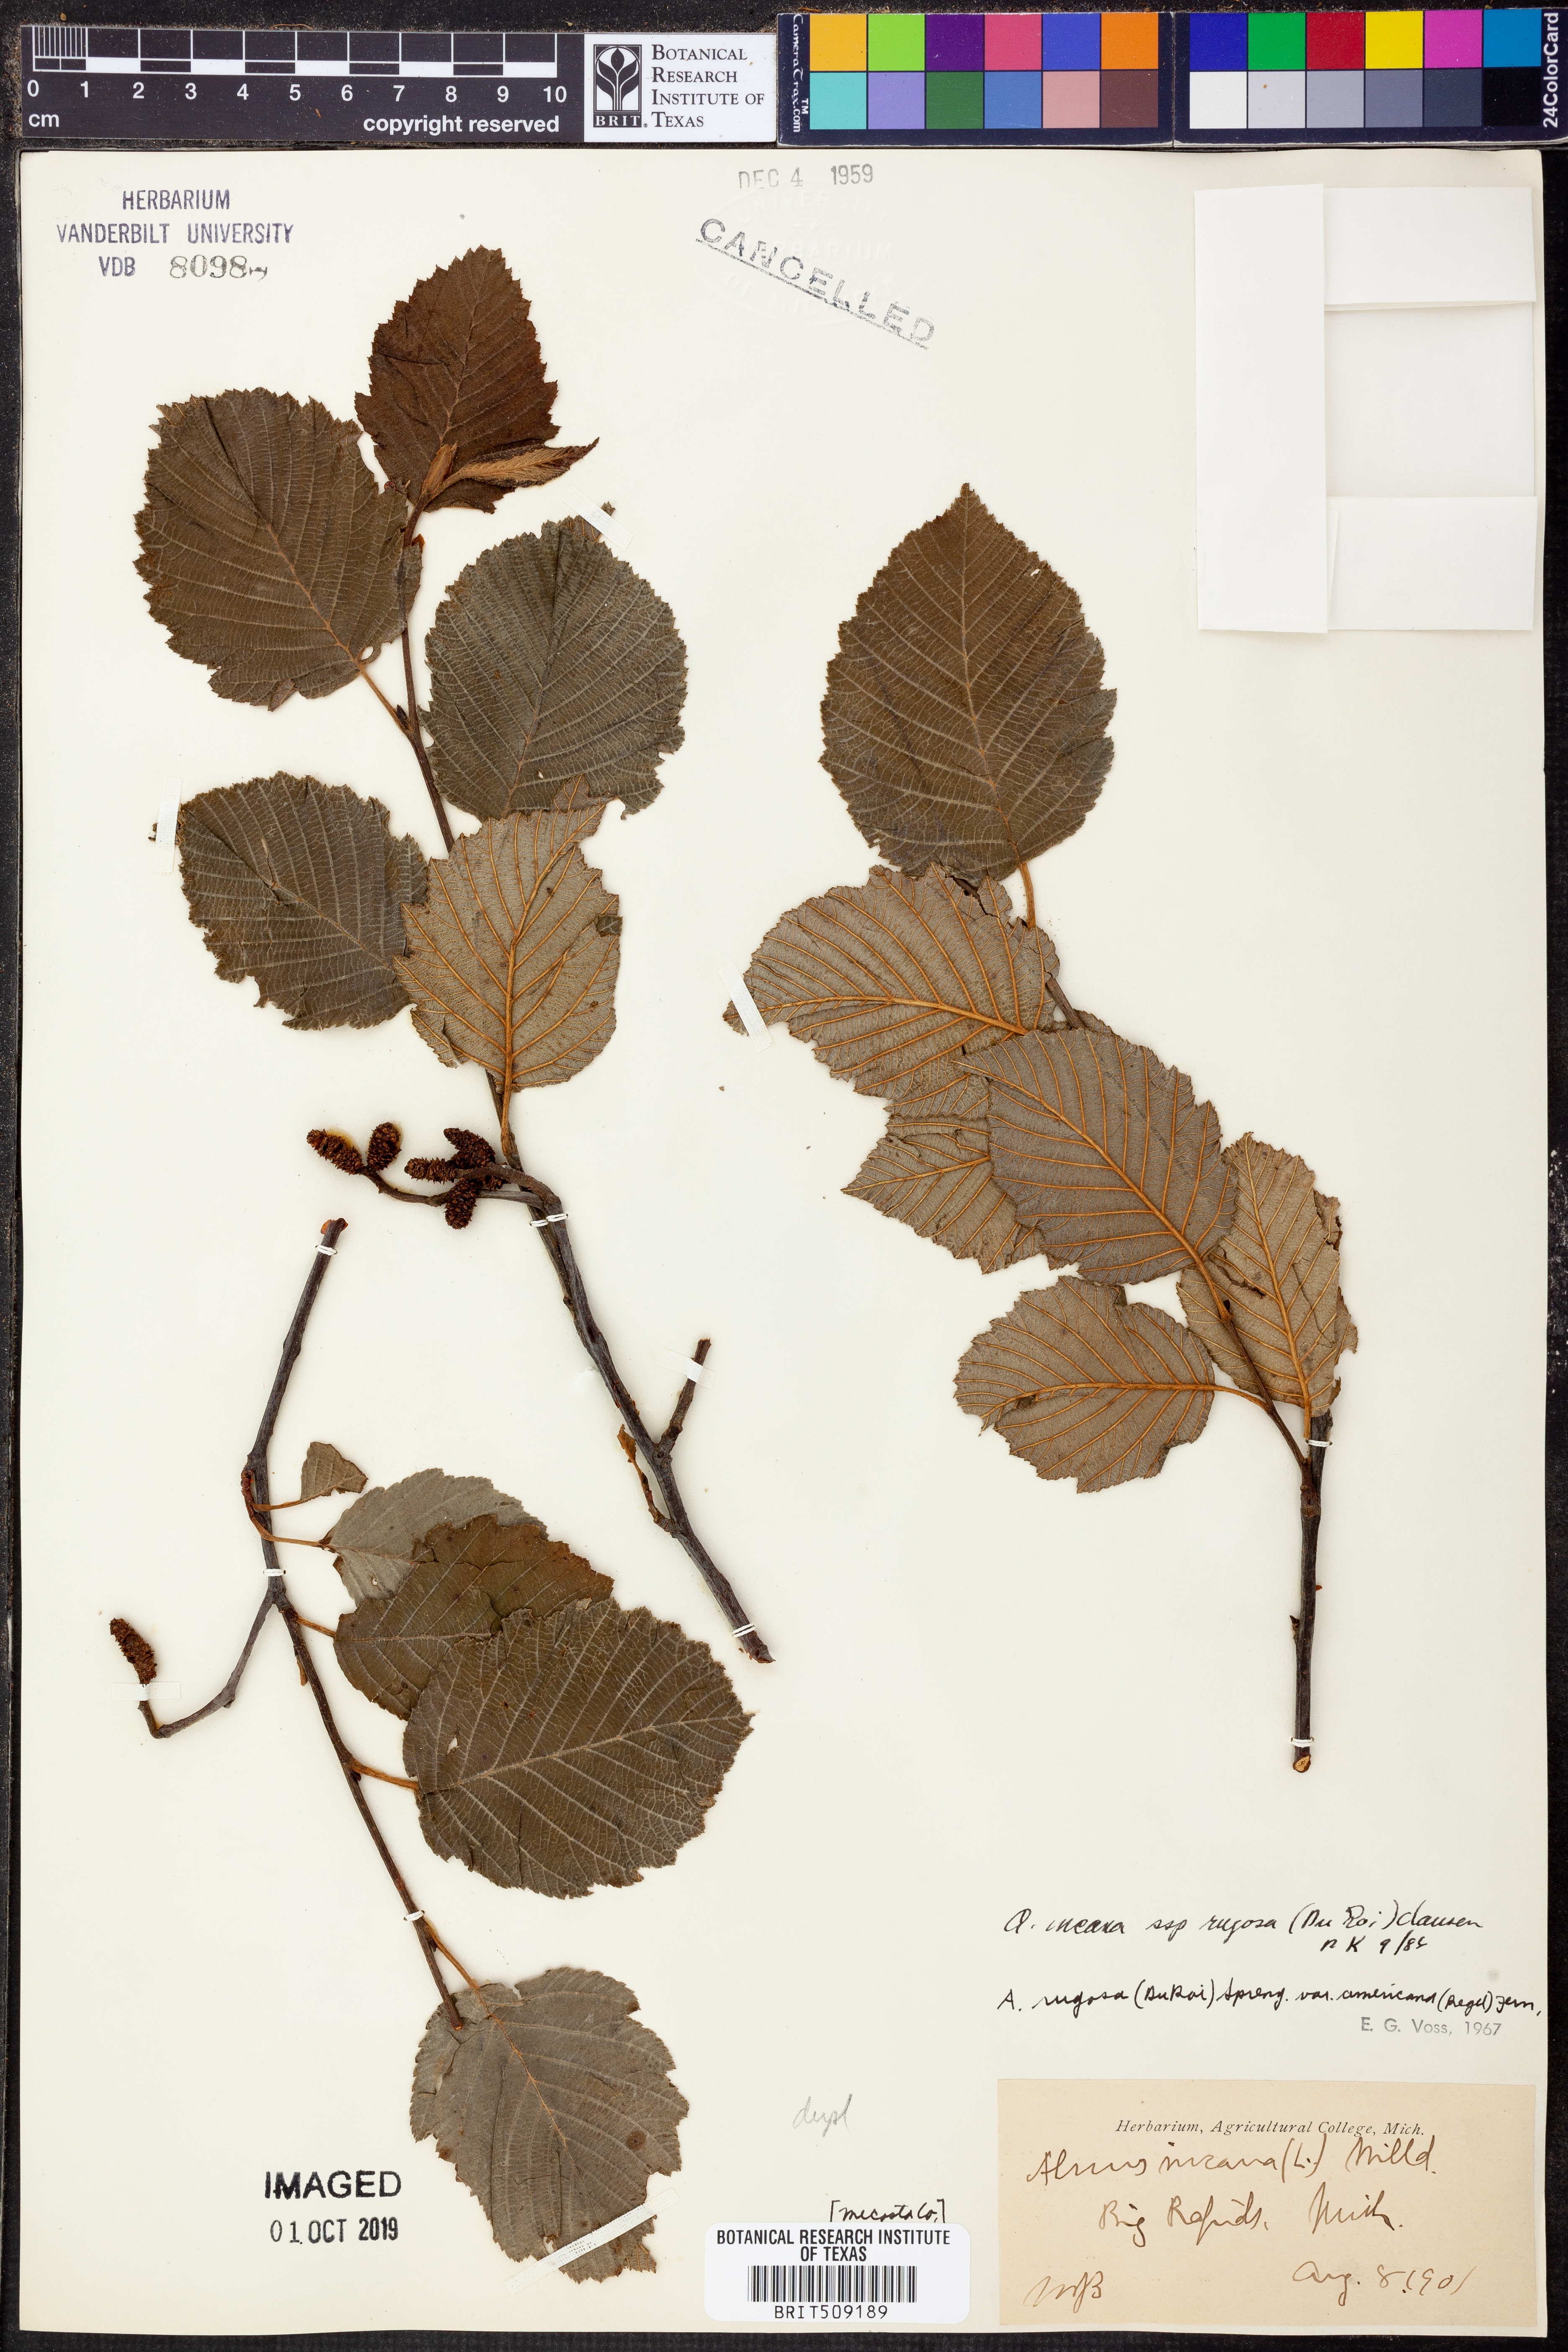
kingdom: Plantae
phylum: Tracheophyta
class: Magnoliopsida
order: Fagales
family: Betulaceae
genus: Alnus
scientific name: Alnus incana
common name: Grey alder
